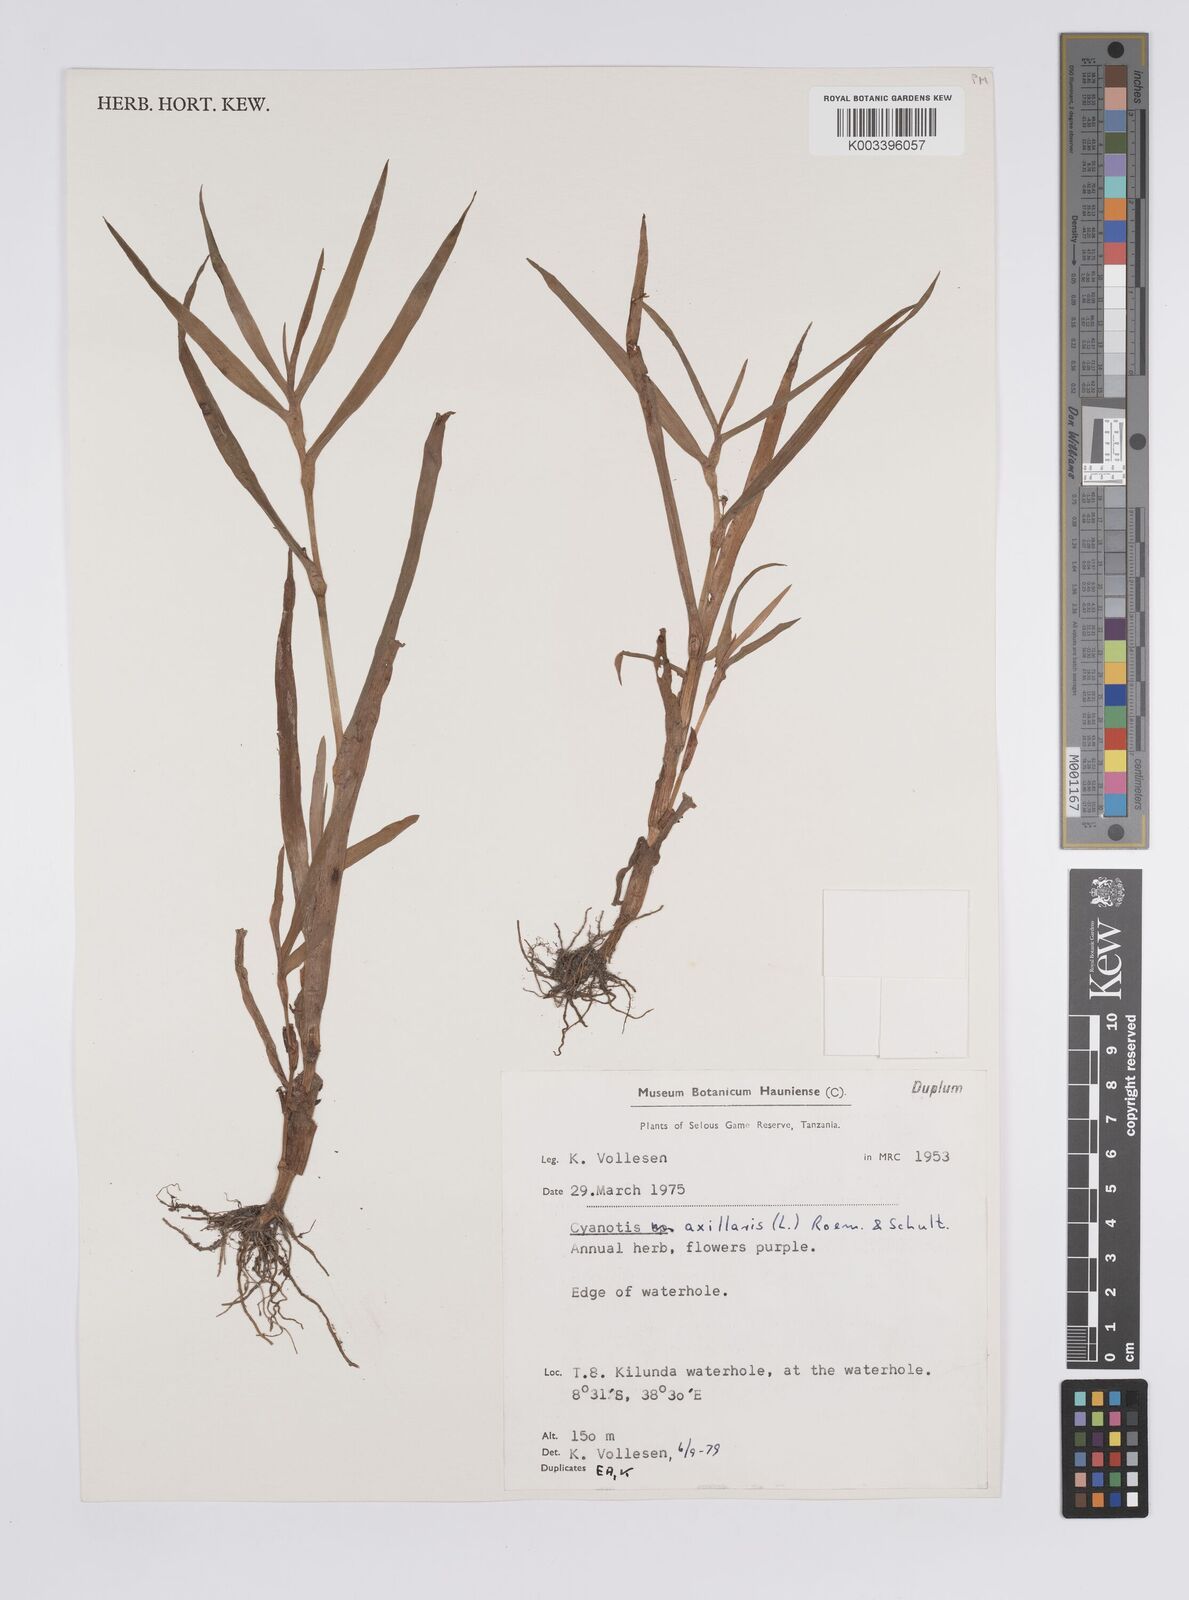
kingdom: Plantae
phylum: Tracheophyta
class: Liliopsida
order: Commelinales
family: Commelinaceae
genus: Cyanotis
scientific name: Cyanotis axillaris
